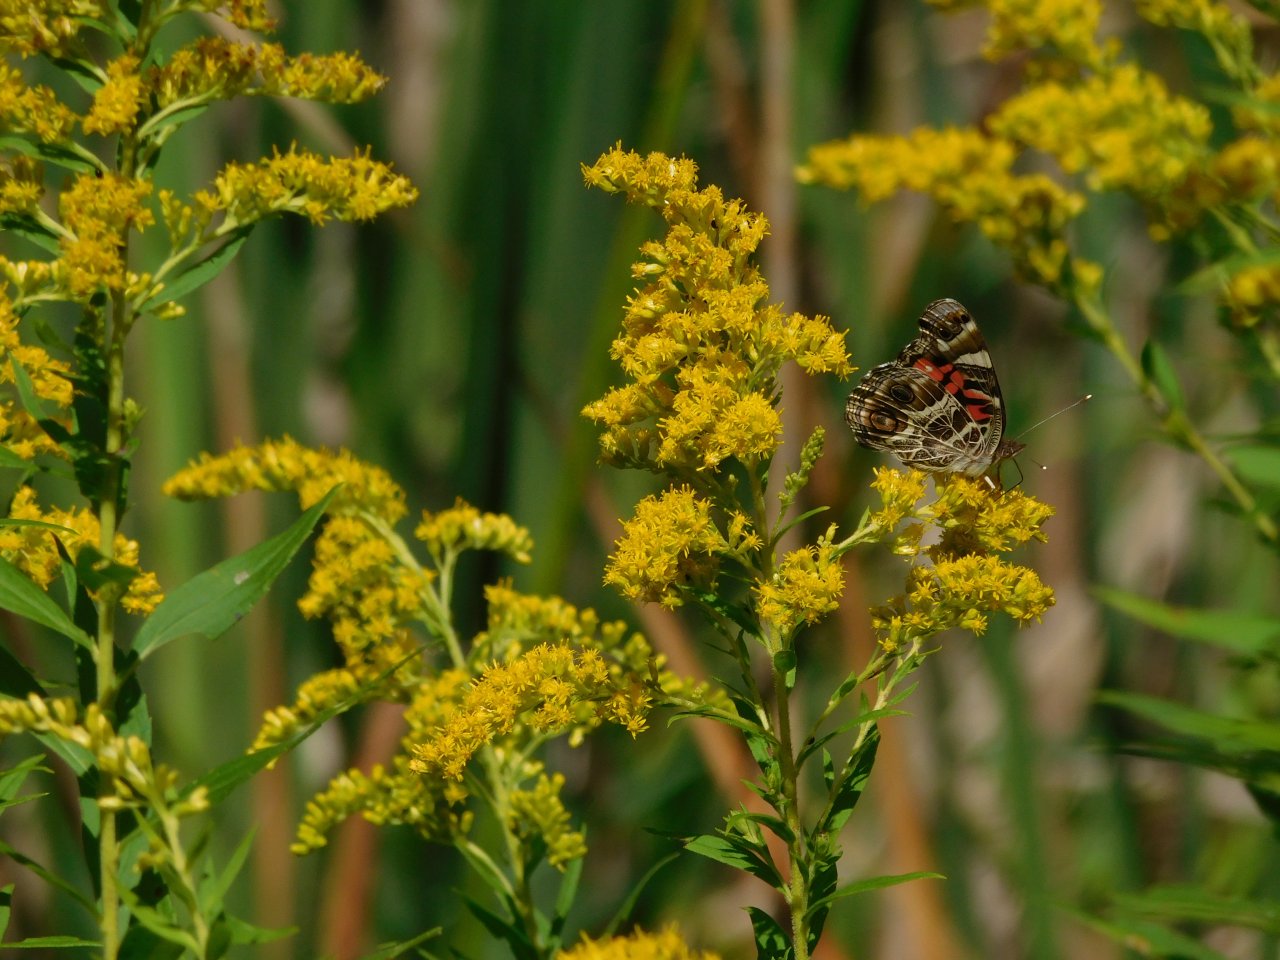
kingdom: Animalia
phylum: Arthropoda
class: Insecta
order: Lepidoptera
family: Nymphalidae
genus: Vanessa
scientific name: Vanessa virginiensis
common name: American Lady
